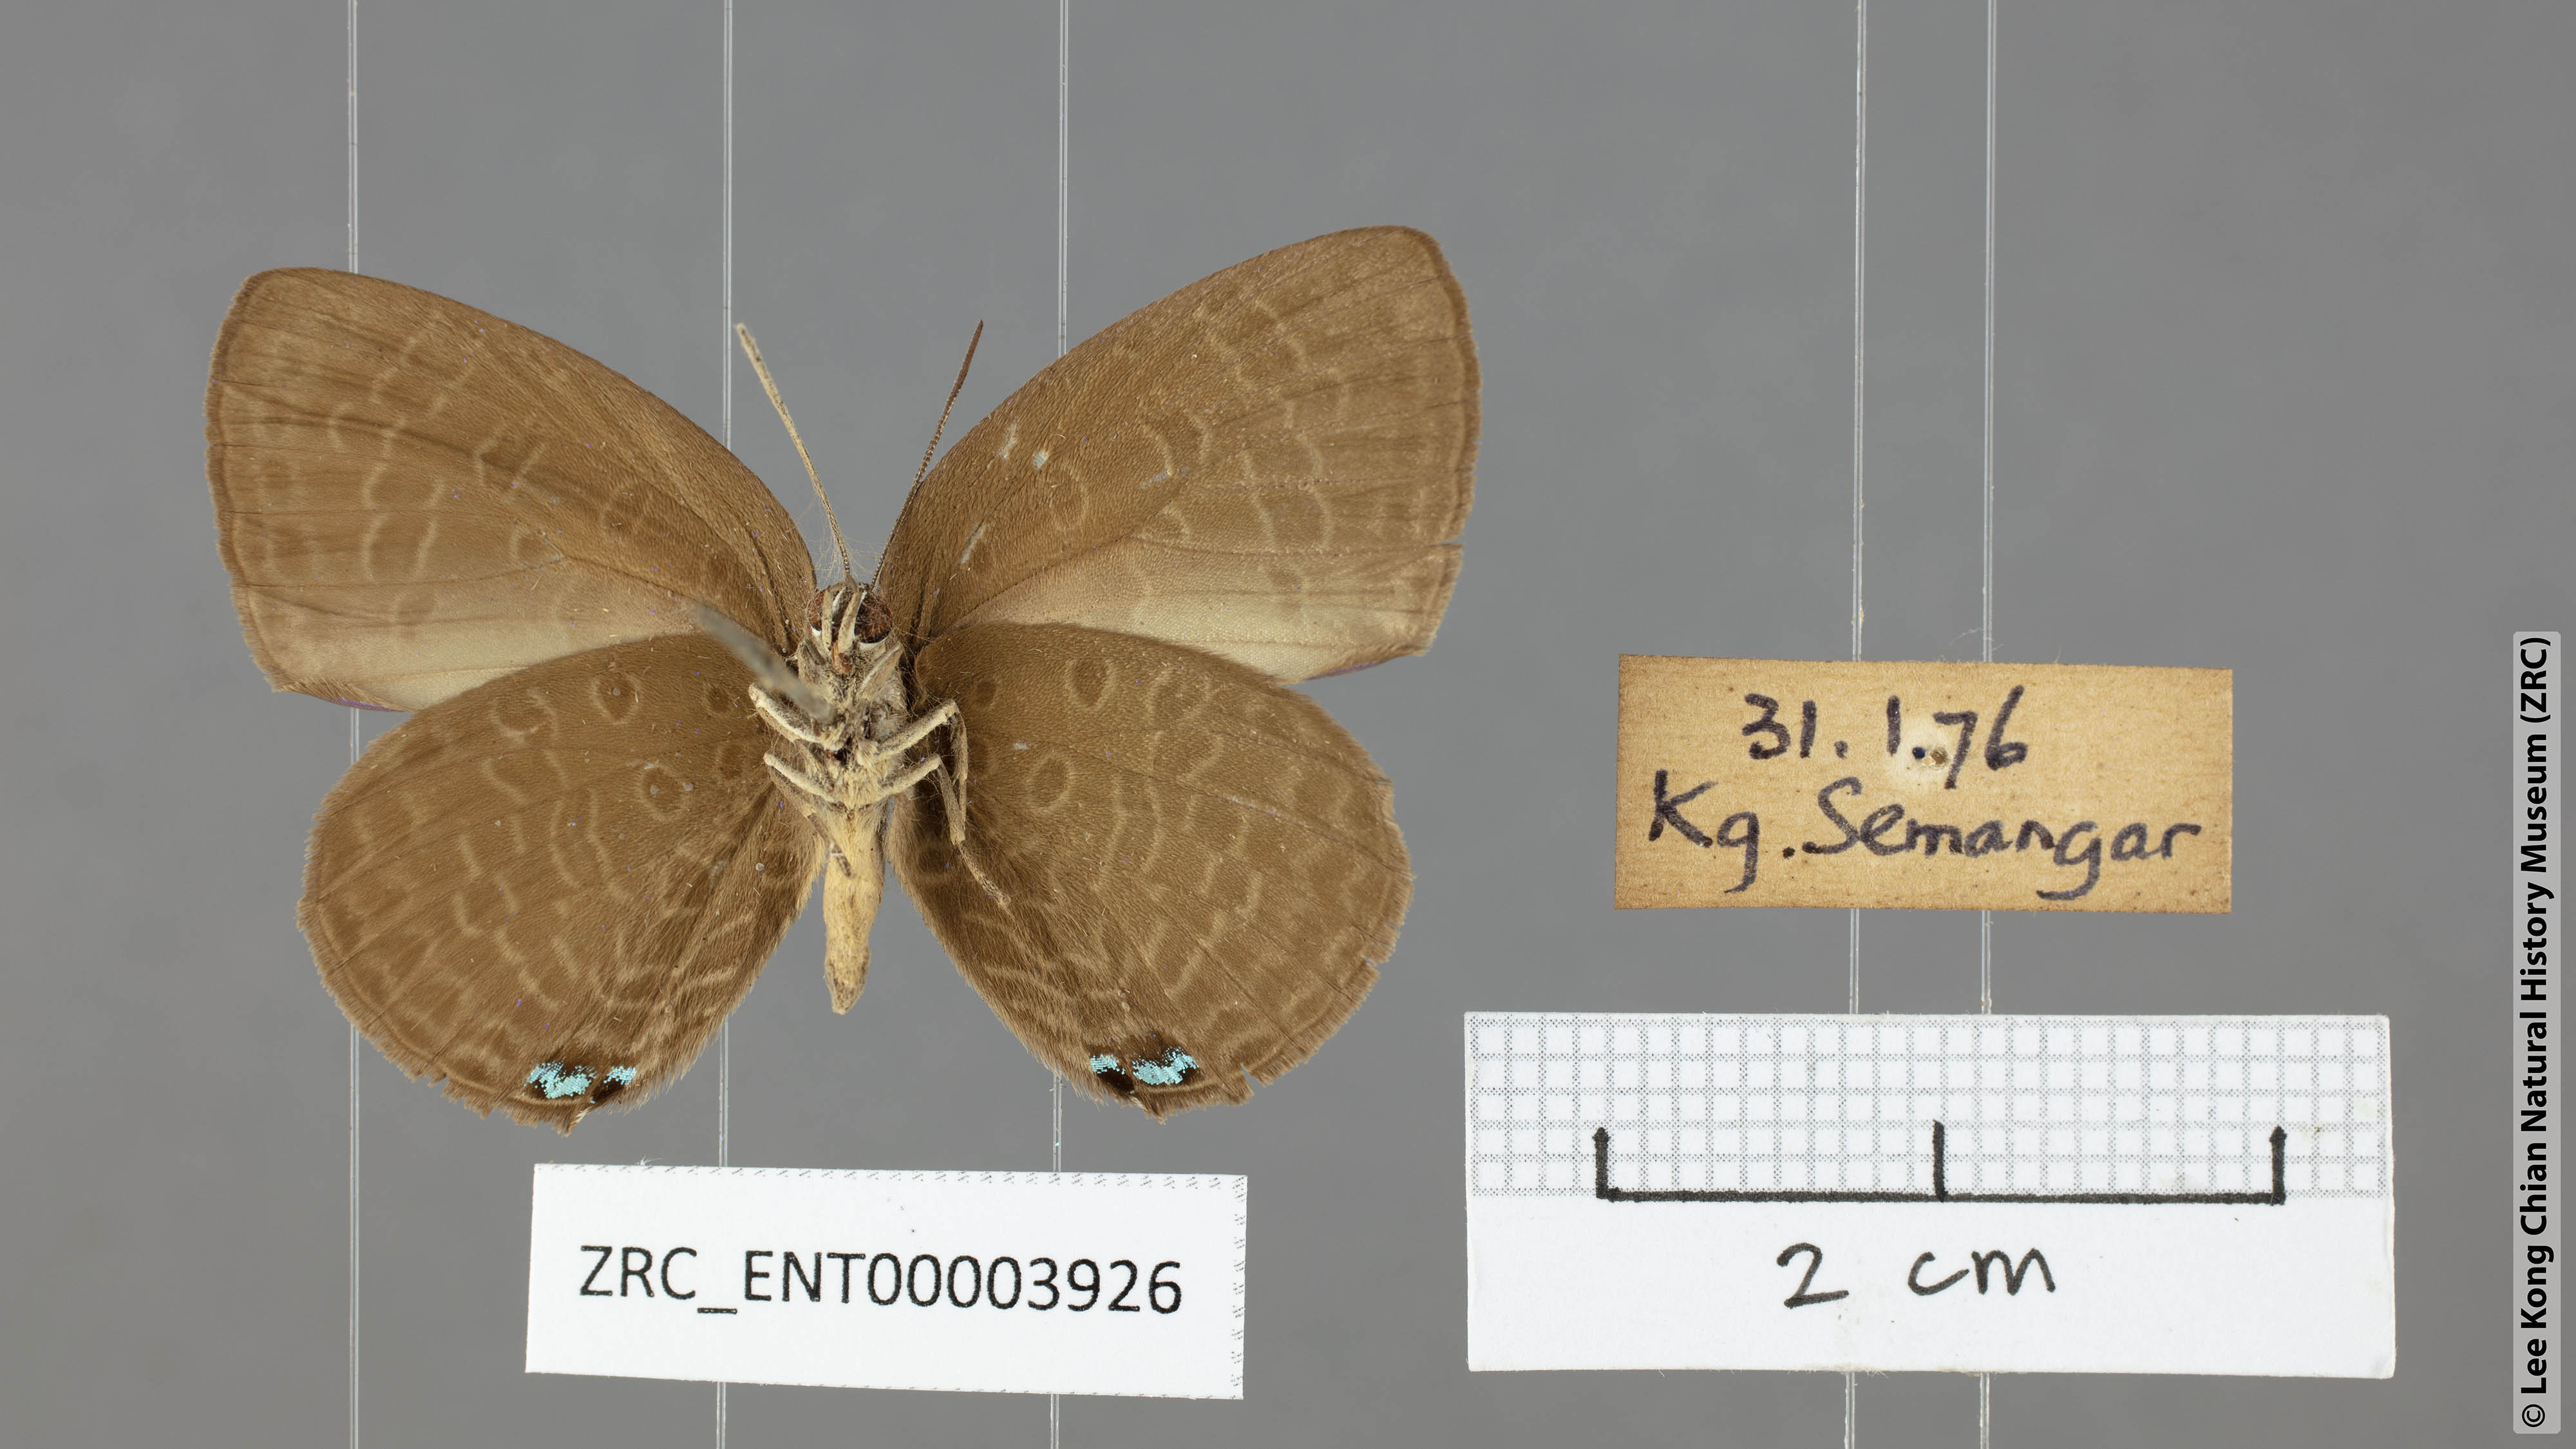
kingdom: Animalia
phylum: Arthropoda
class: Insecta
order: Lepidoptera
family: Lycaenidae
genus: Arhopala
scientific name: Arhopala epimuta
